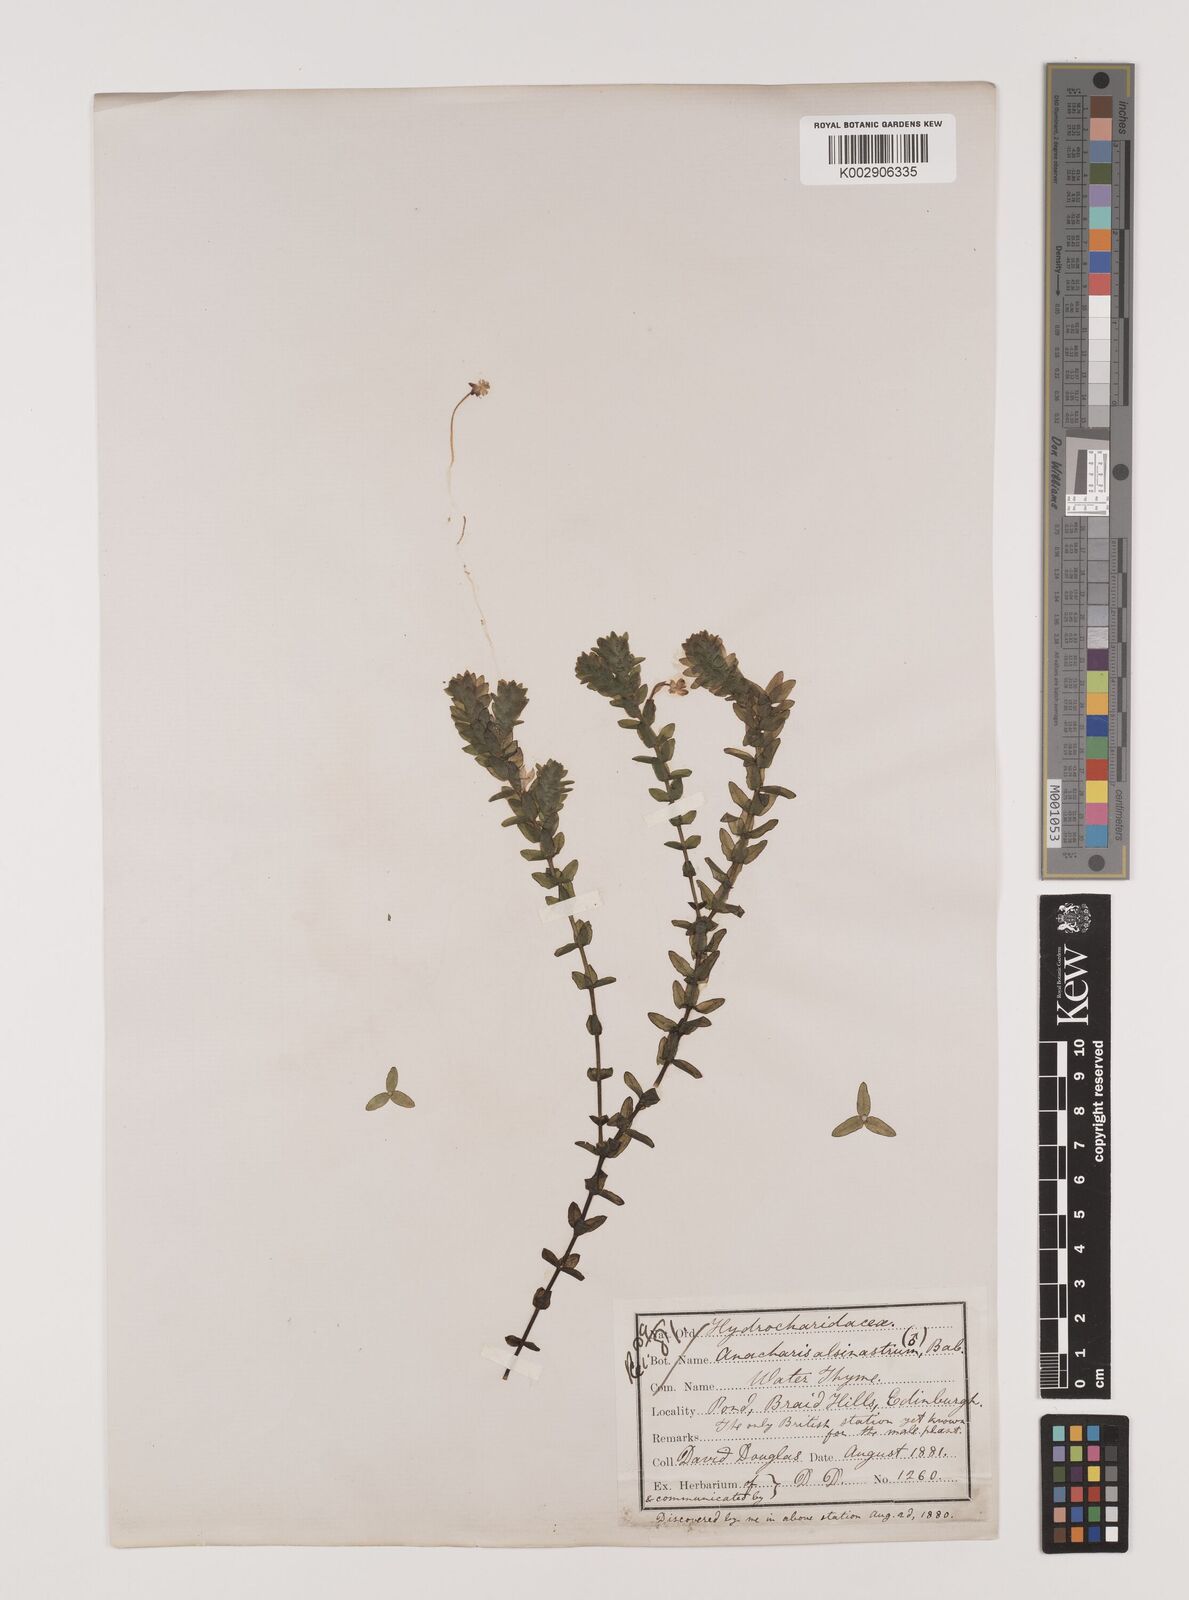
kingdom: Plantae
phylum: Tracheophyta
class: Liliopsida
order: Alismatales
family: Hydrocharitaceae
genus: Elodea
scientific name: Elodea canadensis
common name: Canadian waterweed
